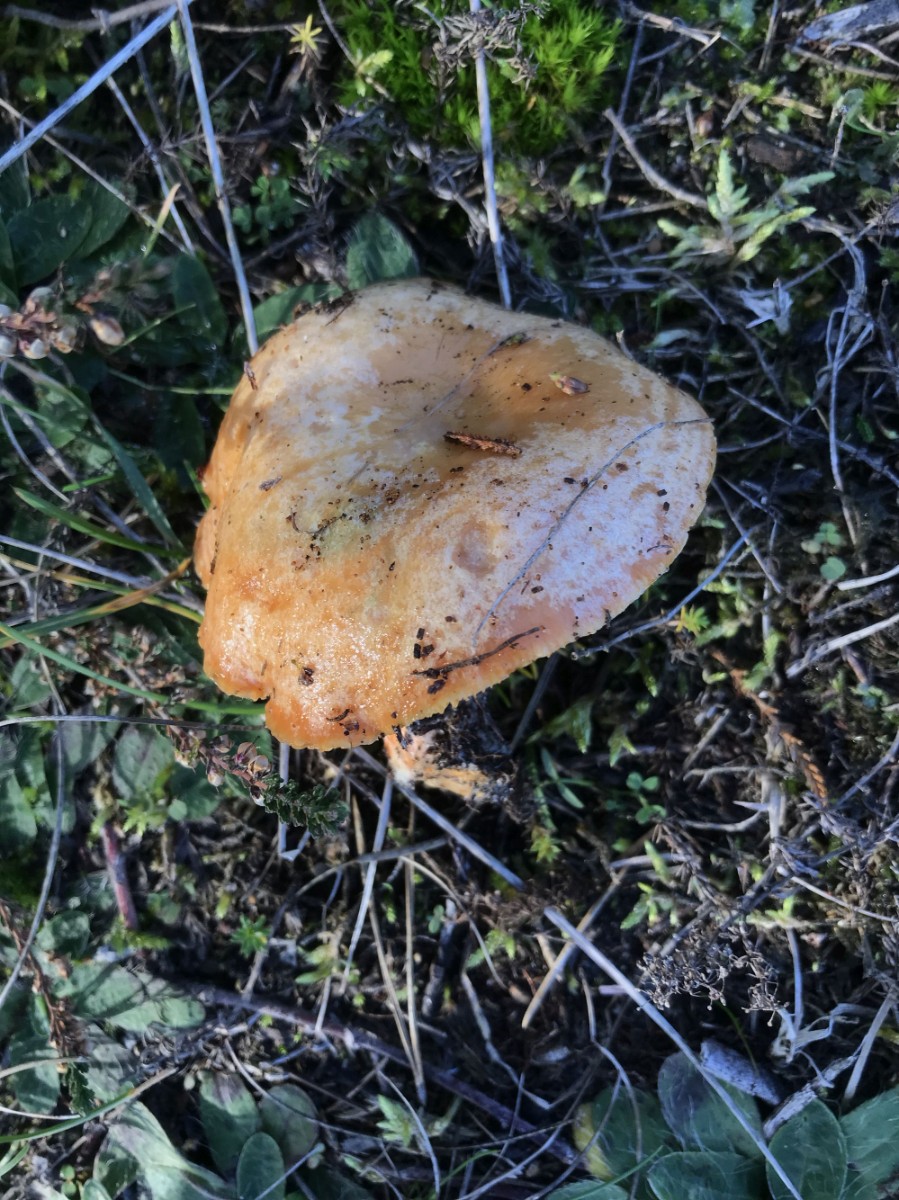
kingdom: Fungi
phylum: Basidiomycota
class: Agaricomycetes
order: Russulales
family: Russulaceae
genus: Lactarius
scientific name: Lactarius
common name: mælkehat
